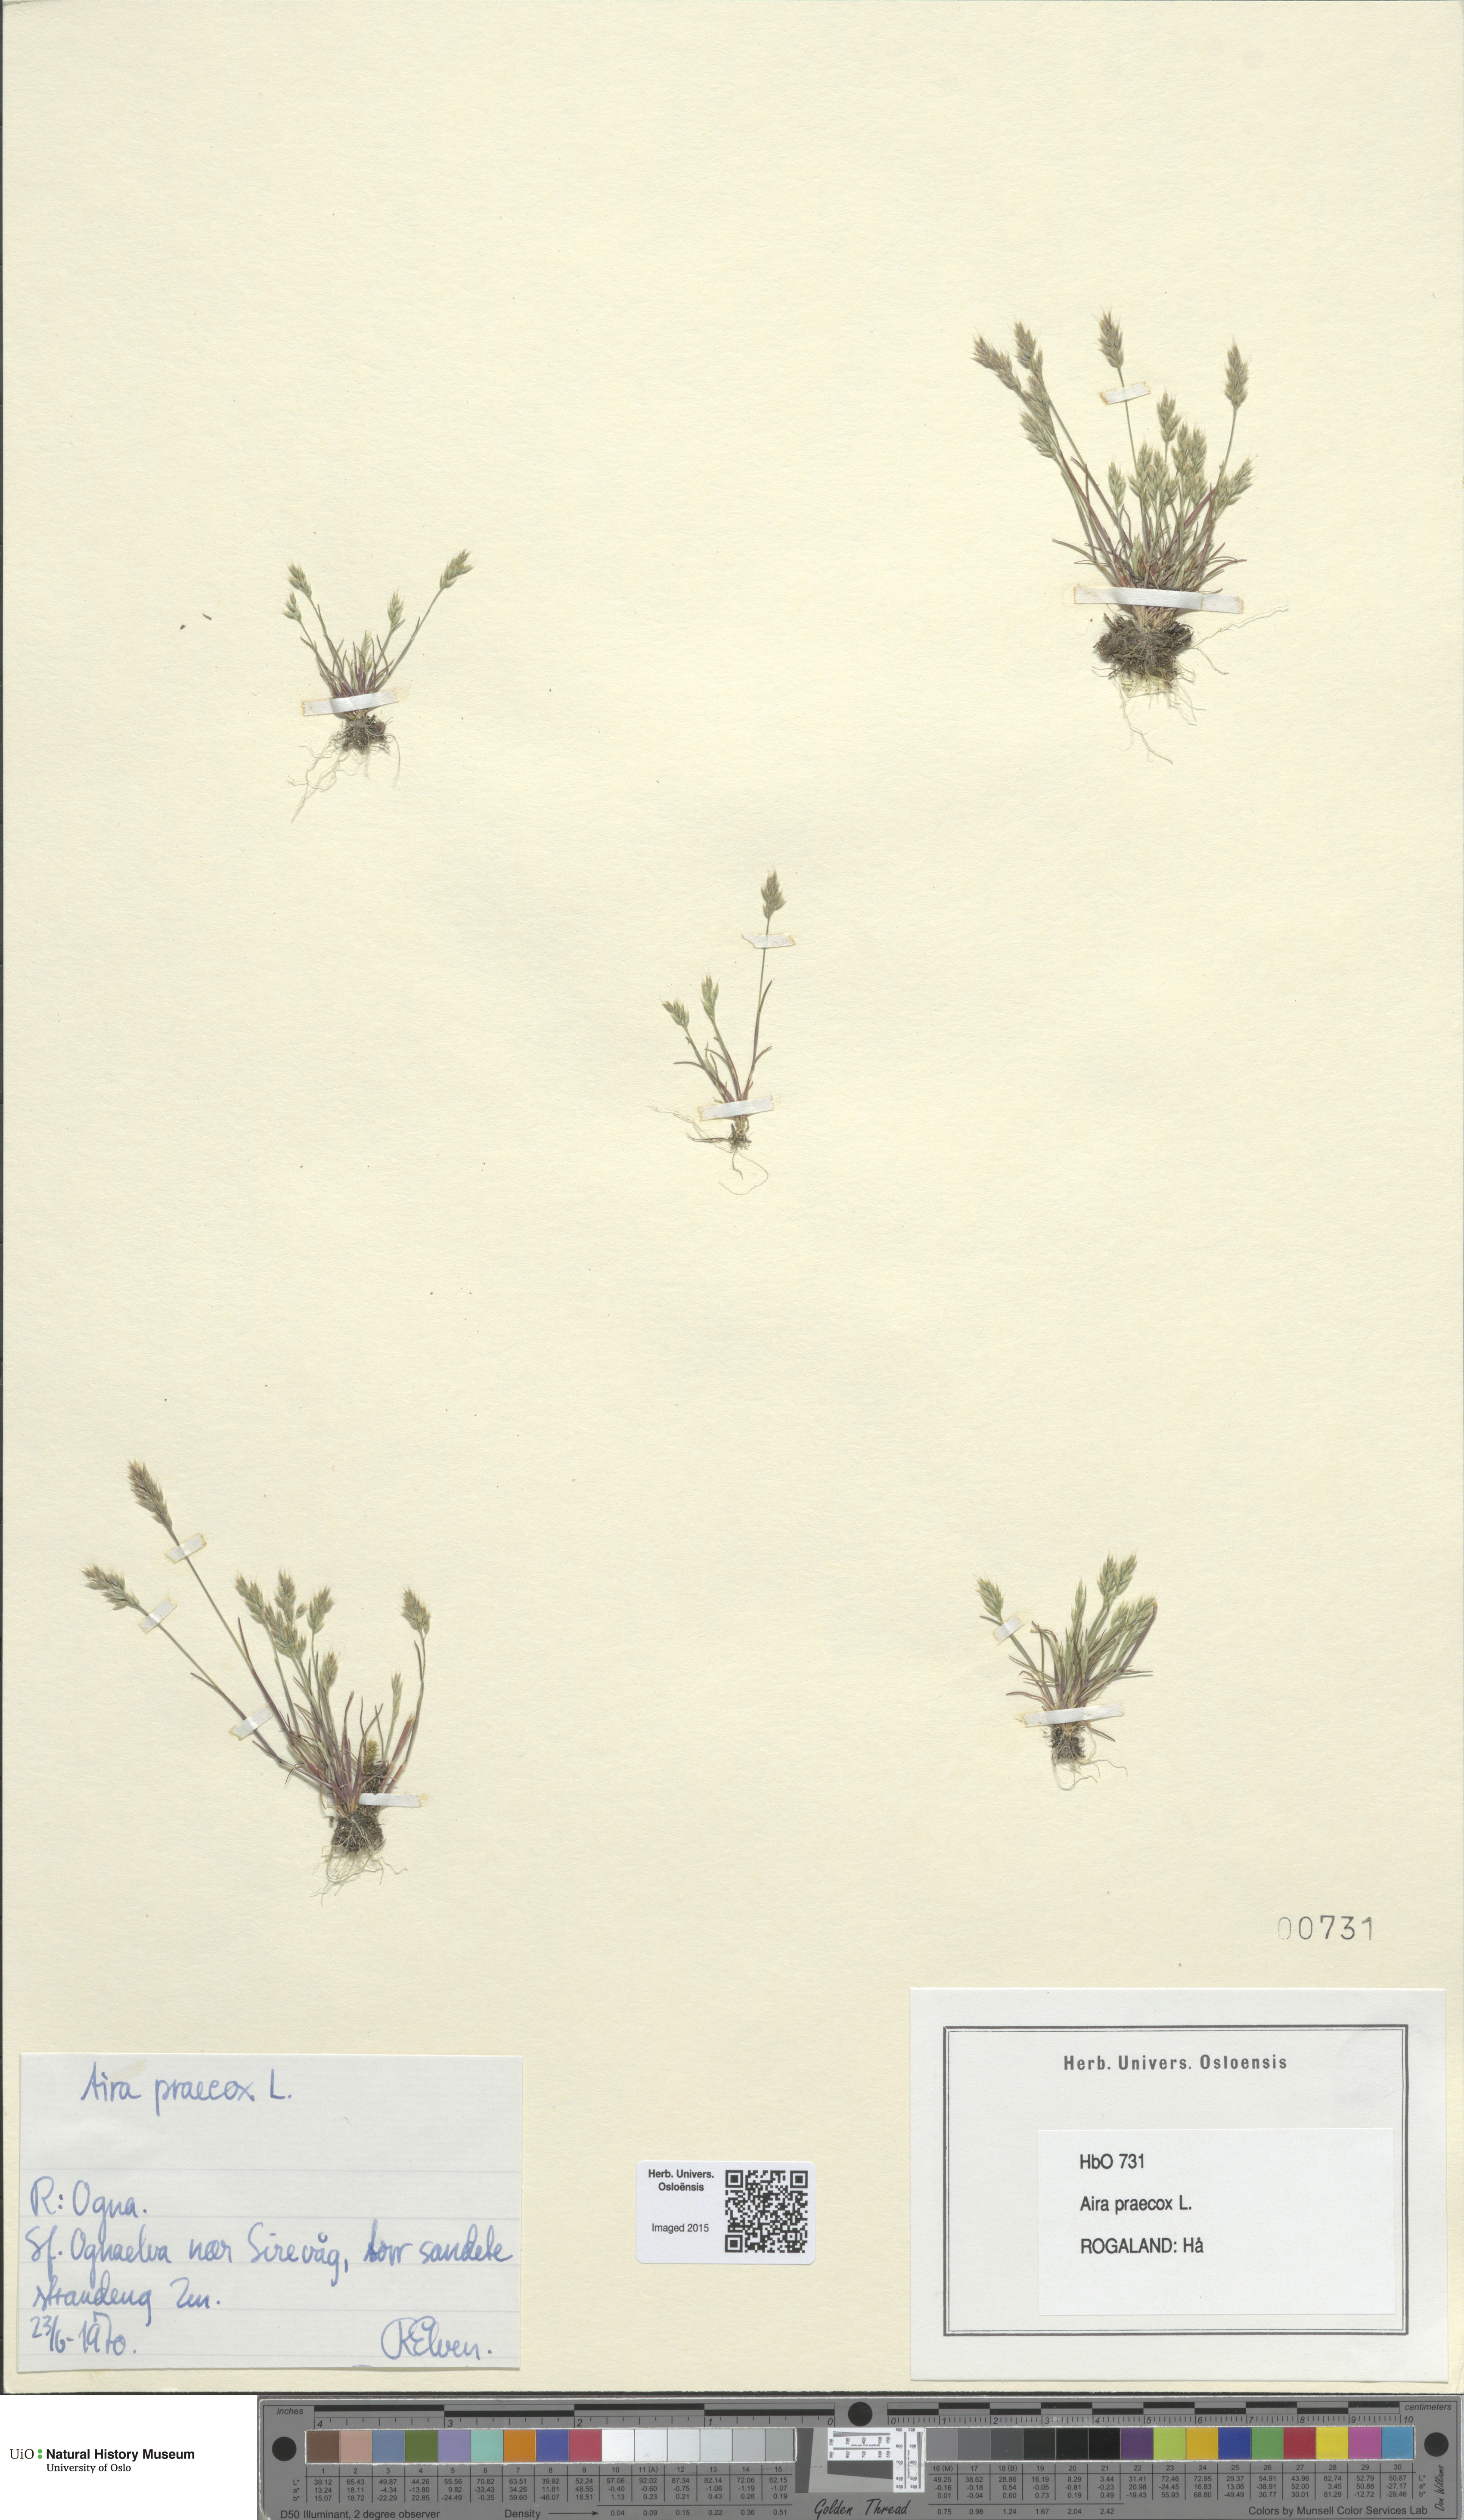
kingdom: Plantae
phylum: Tracheophyta
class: Liliopsida
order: Poales
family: Poaceae
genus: Aira
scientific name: Aira praecox
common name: Early hair-grass
